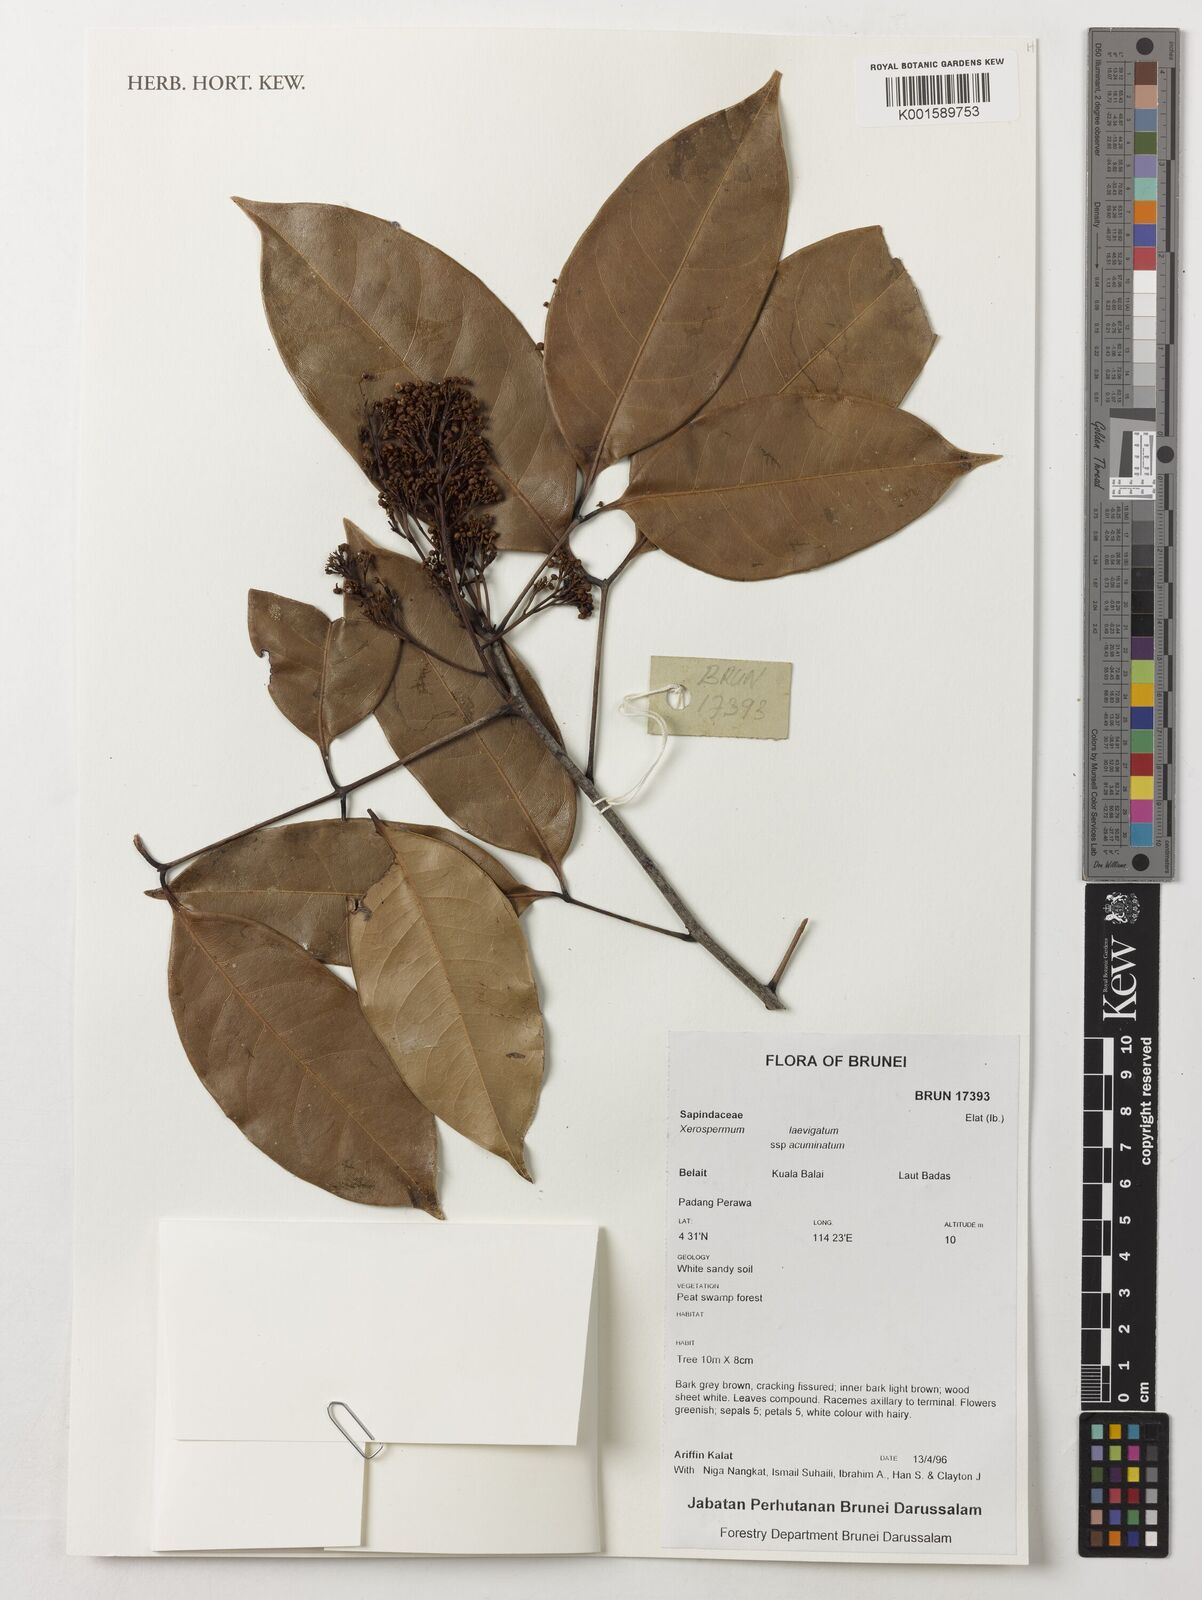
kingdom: Plantae
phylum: Tracheophyta
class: Magnoliopsida
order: Sapindales
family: Sapindaceae
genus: Xerospermum
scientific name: Xerospermum laevigatum
